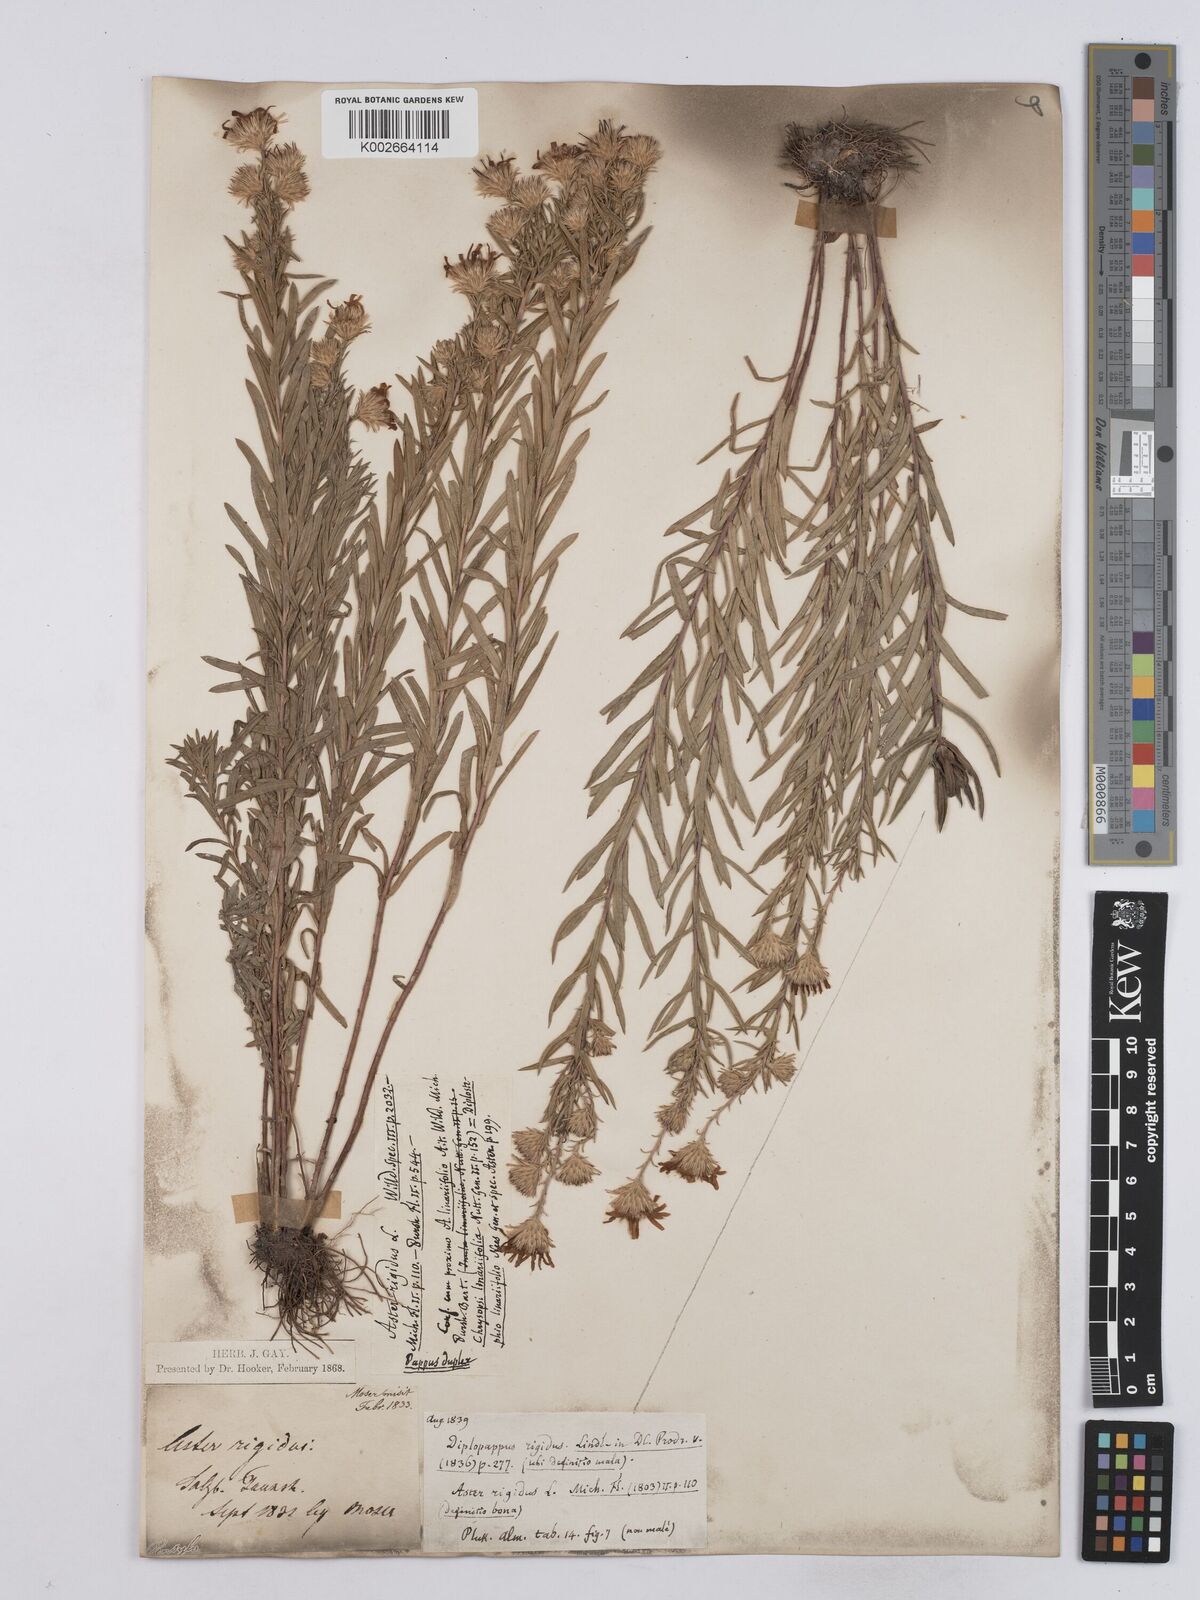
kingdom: Plantae
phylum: Tracheophyta
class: Magnoliopsida
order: Asterales
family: Asteraceae
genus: Ionactis
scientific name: Ionactis linariifolia
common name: Flax-leaf aster
